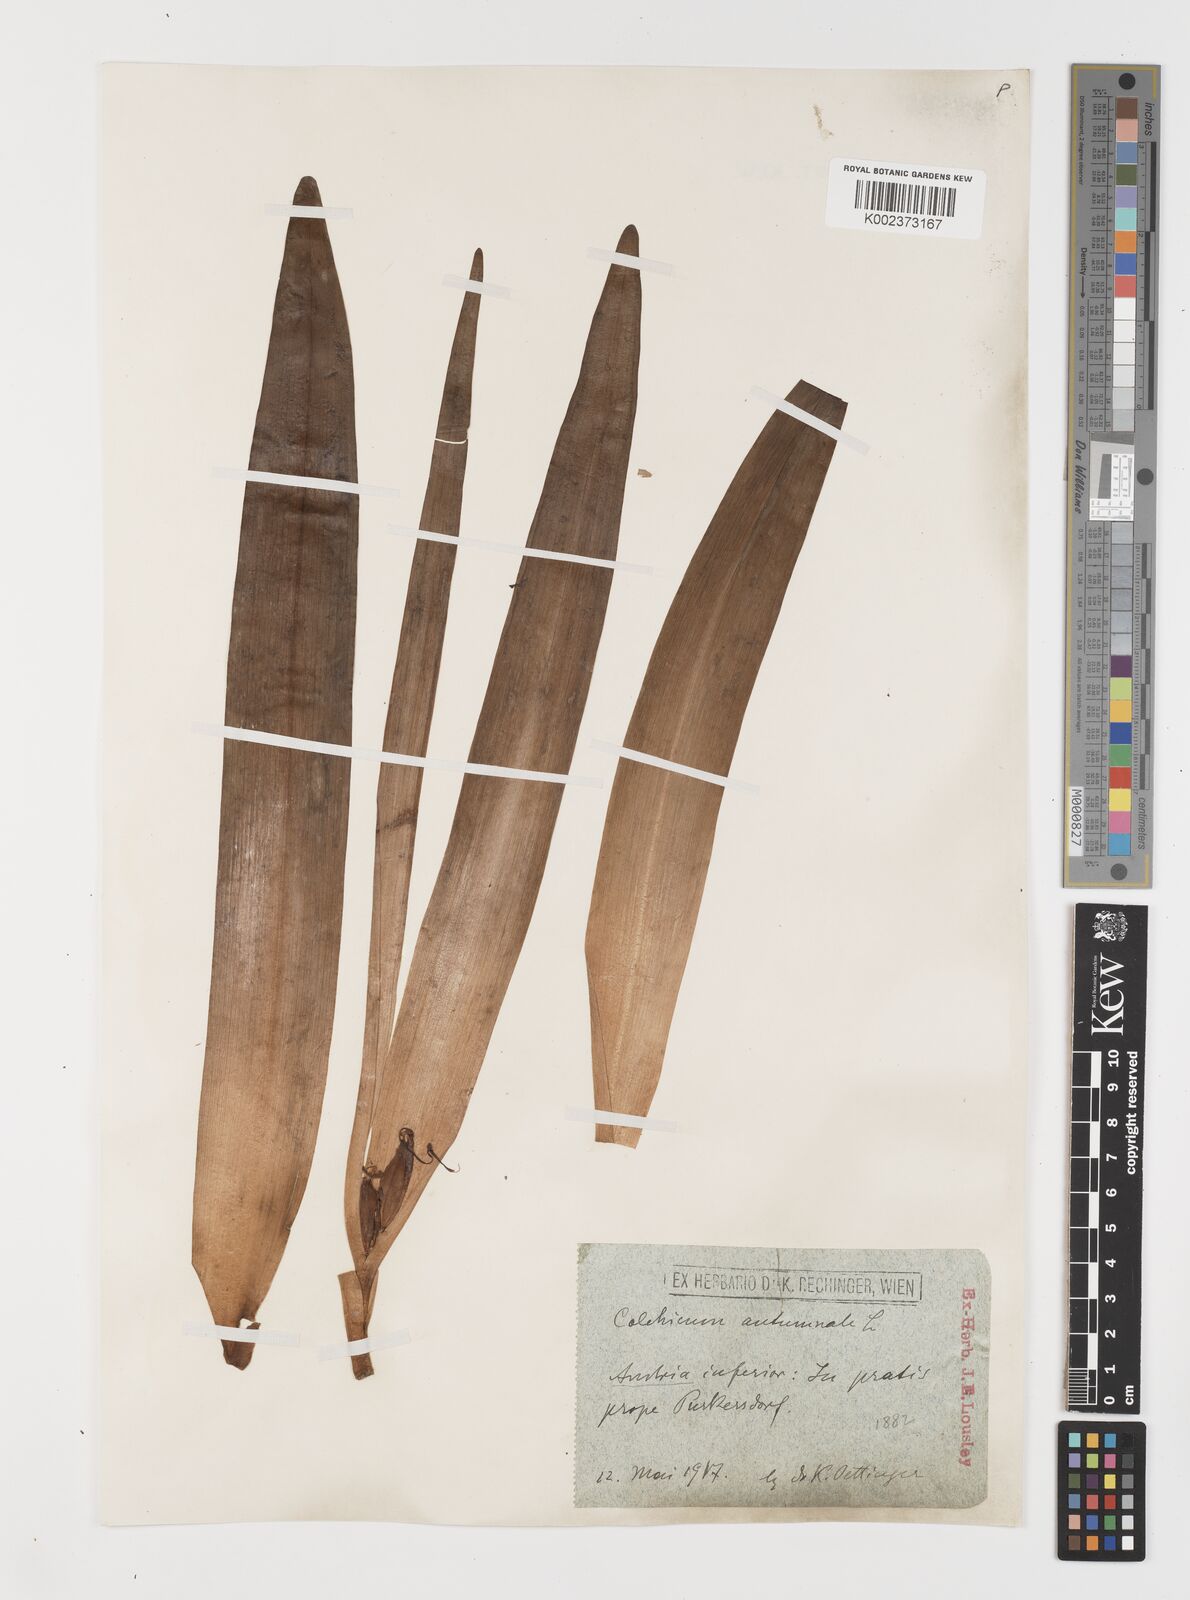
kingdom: Plantae
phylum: Tracheophyta
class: Liliopsida
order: Liliales
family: Colchicaceae
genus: Colchicum
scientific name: Colchicum autumnale
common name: Autumn crocus
